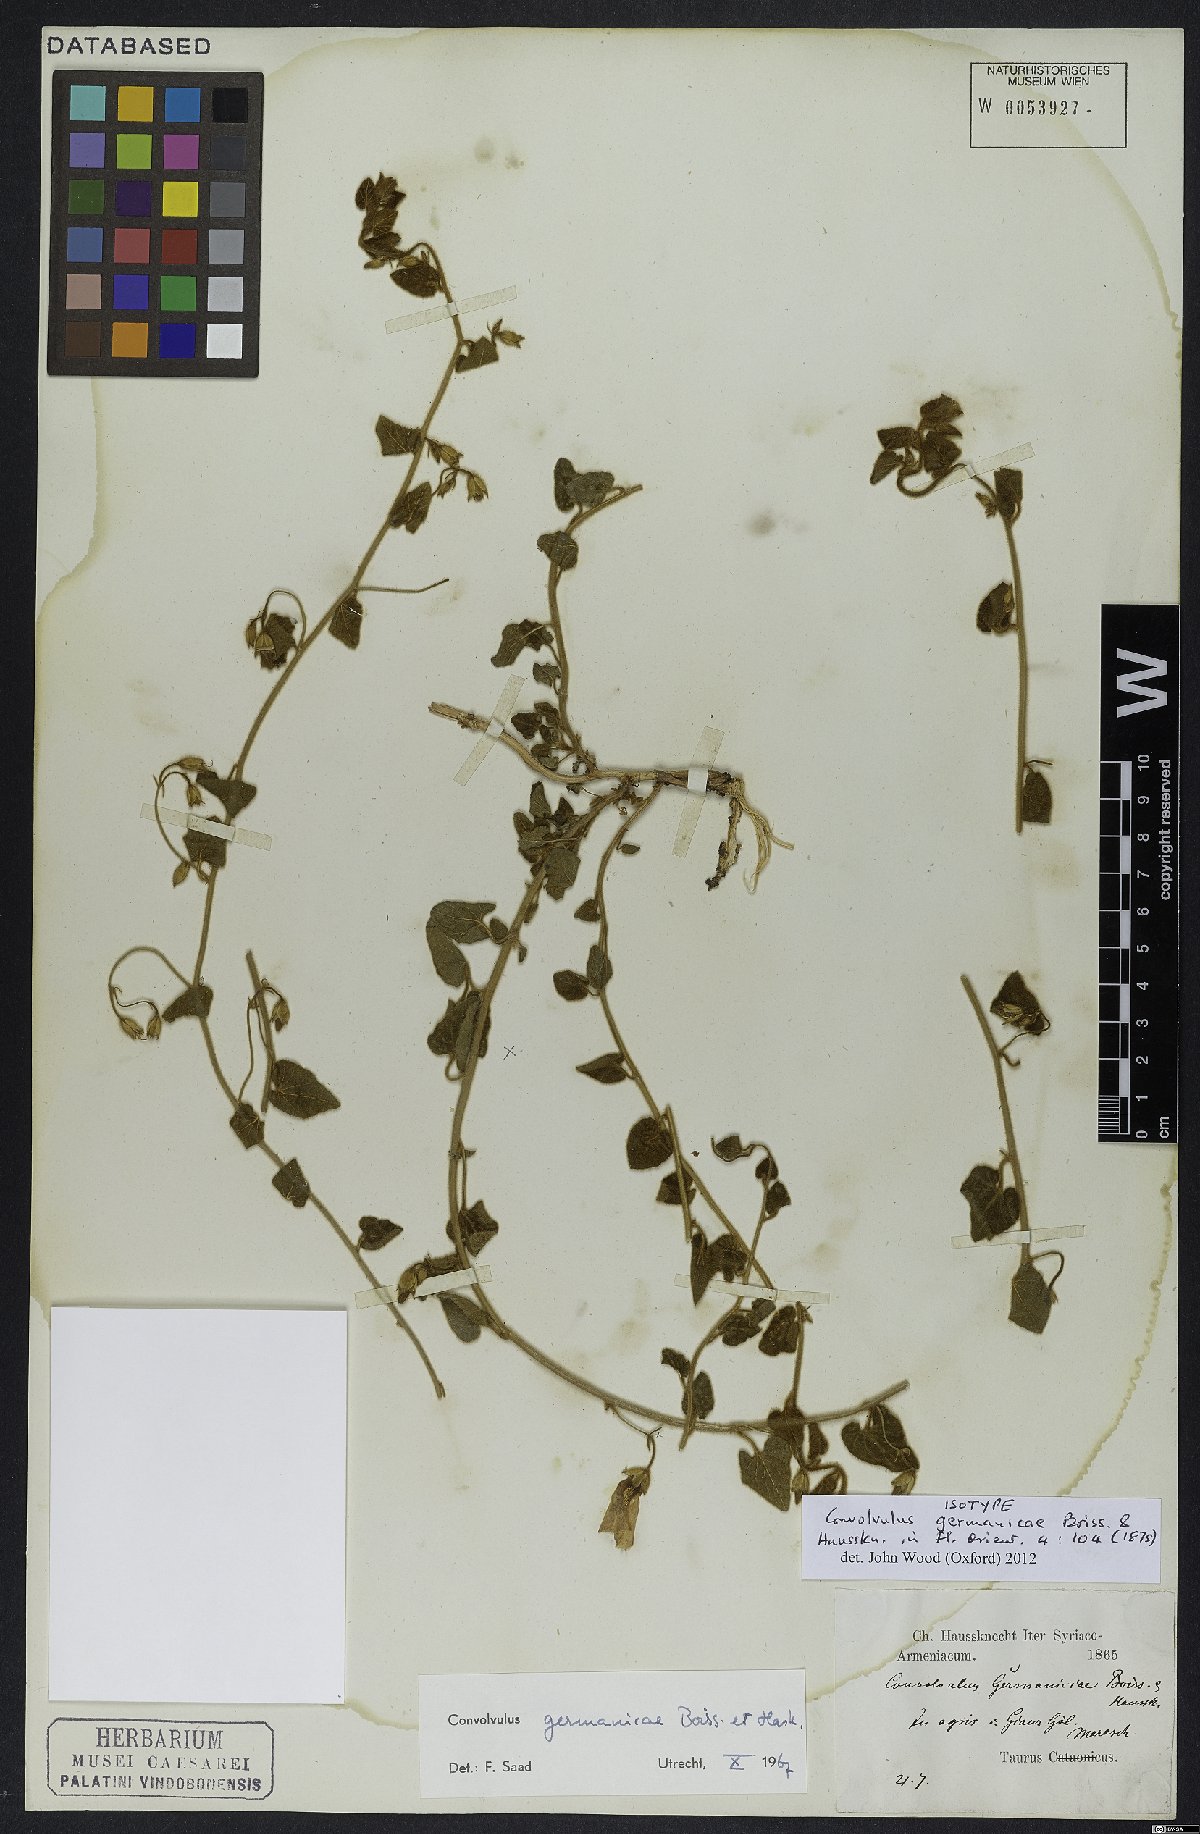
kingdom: Plantae
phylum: Tracheophyta
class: Magnoliopsida
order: Solanales
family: Convolvulaceae
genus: Convolvulus
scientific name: Convolvulus germaniciae
